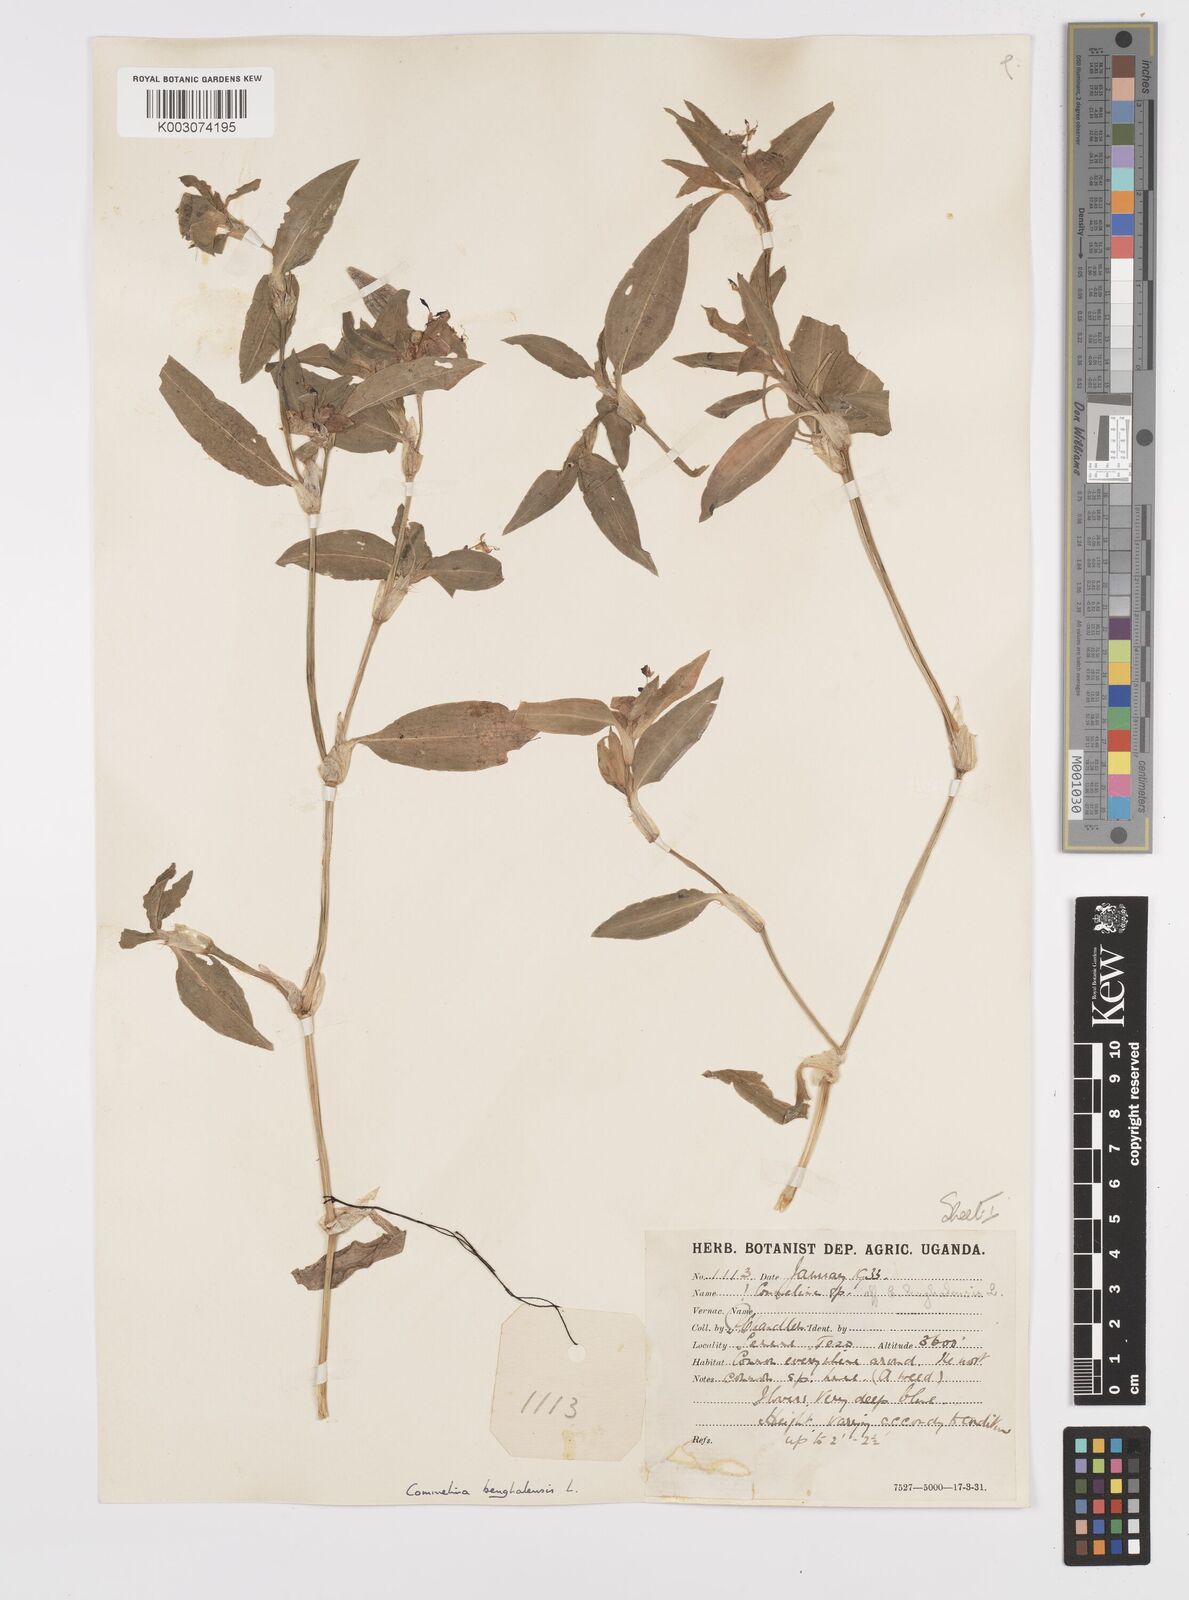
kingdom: Plantae
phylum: Tracheophyta
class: Liliopsida
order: Commelinales
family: Commelinaceae
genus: Commelina
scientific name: Commelina benghalensis
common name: Jio
